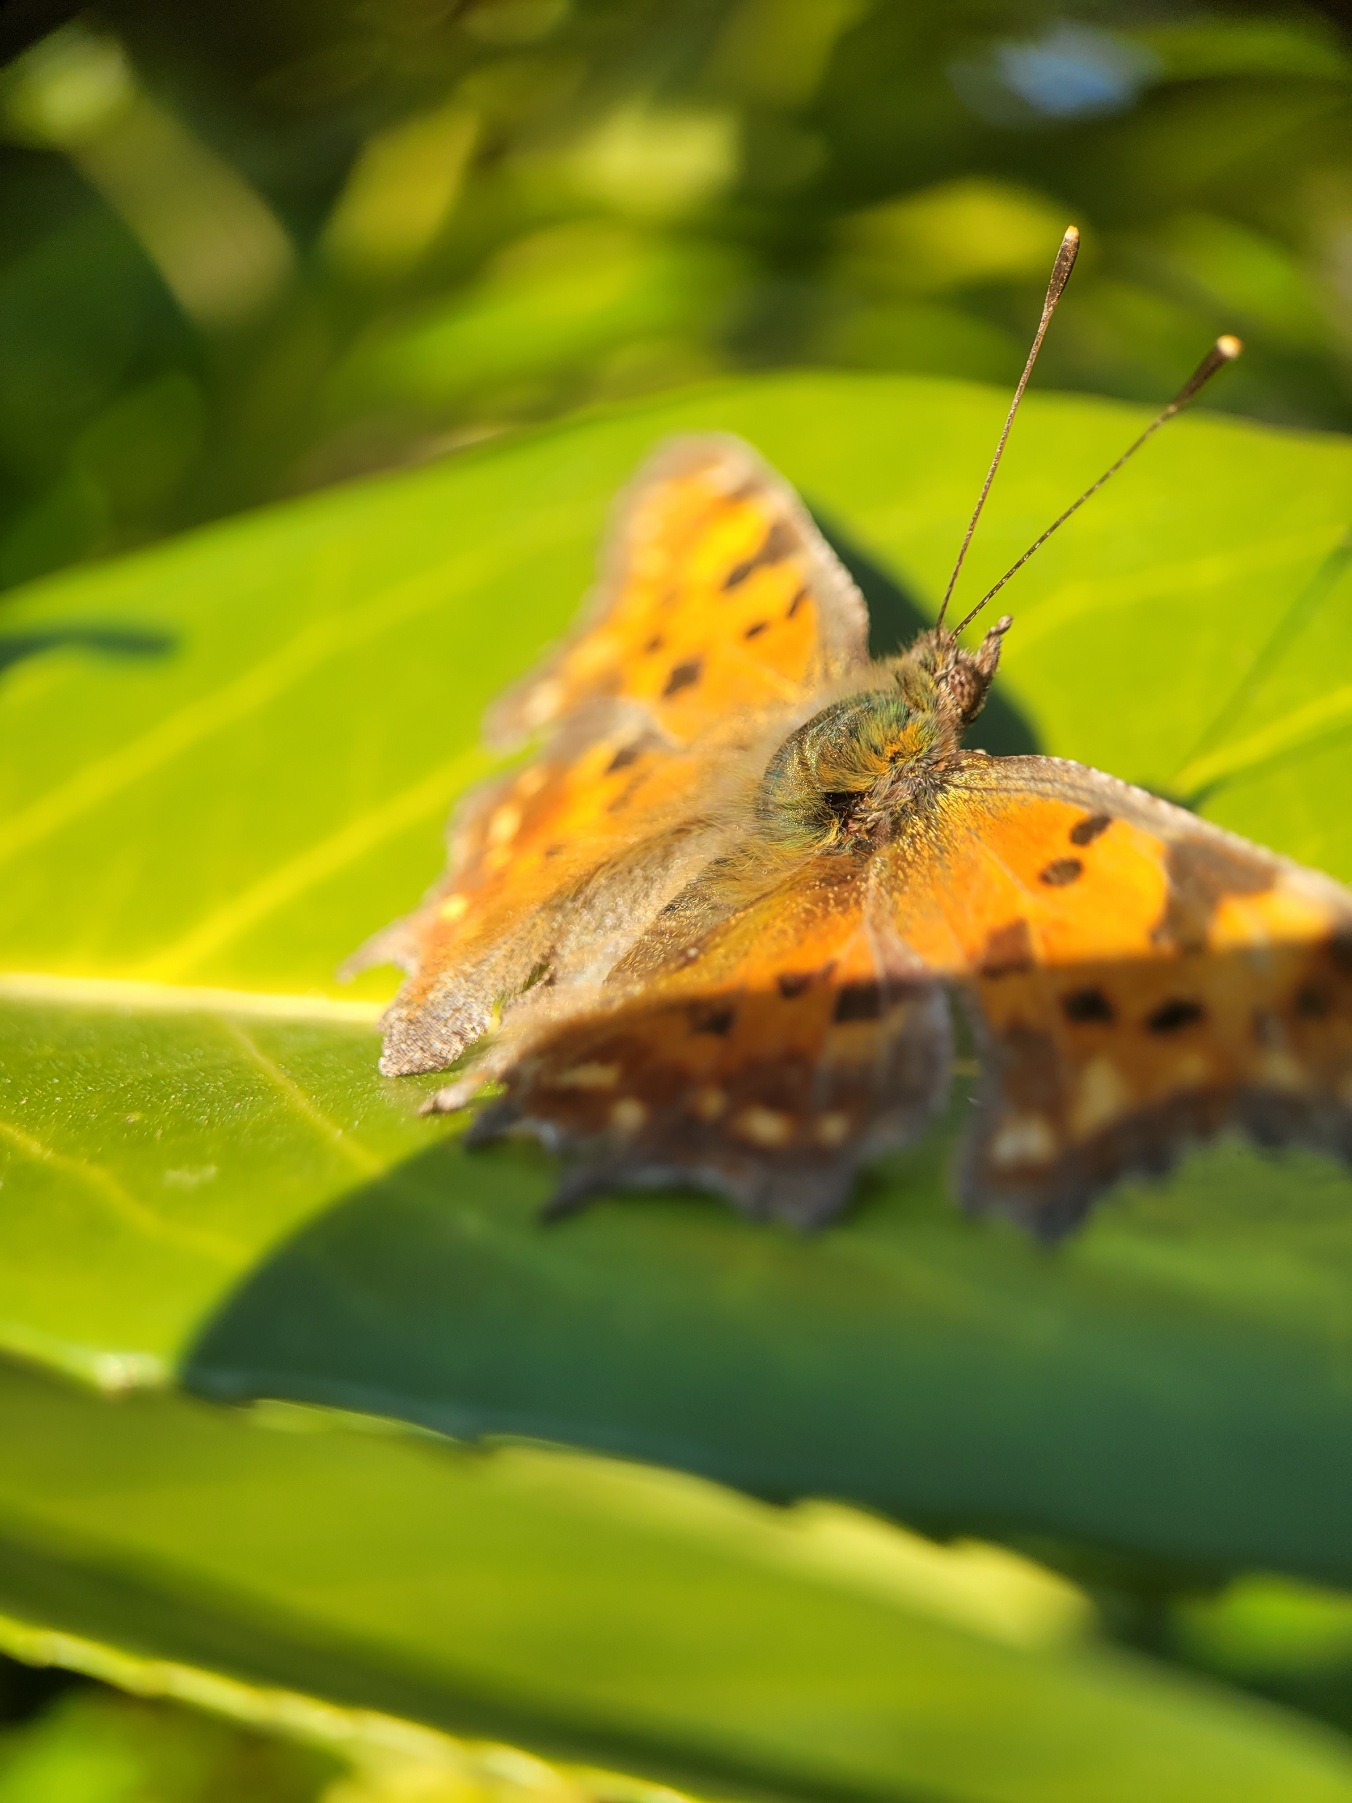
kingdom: Animalia
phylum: Arthropoda
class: Insecta
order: Lepidoptera
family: Nymphalidae
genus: Polygonia
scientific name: Polygonia c-album
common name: Det hvide C
